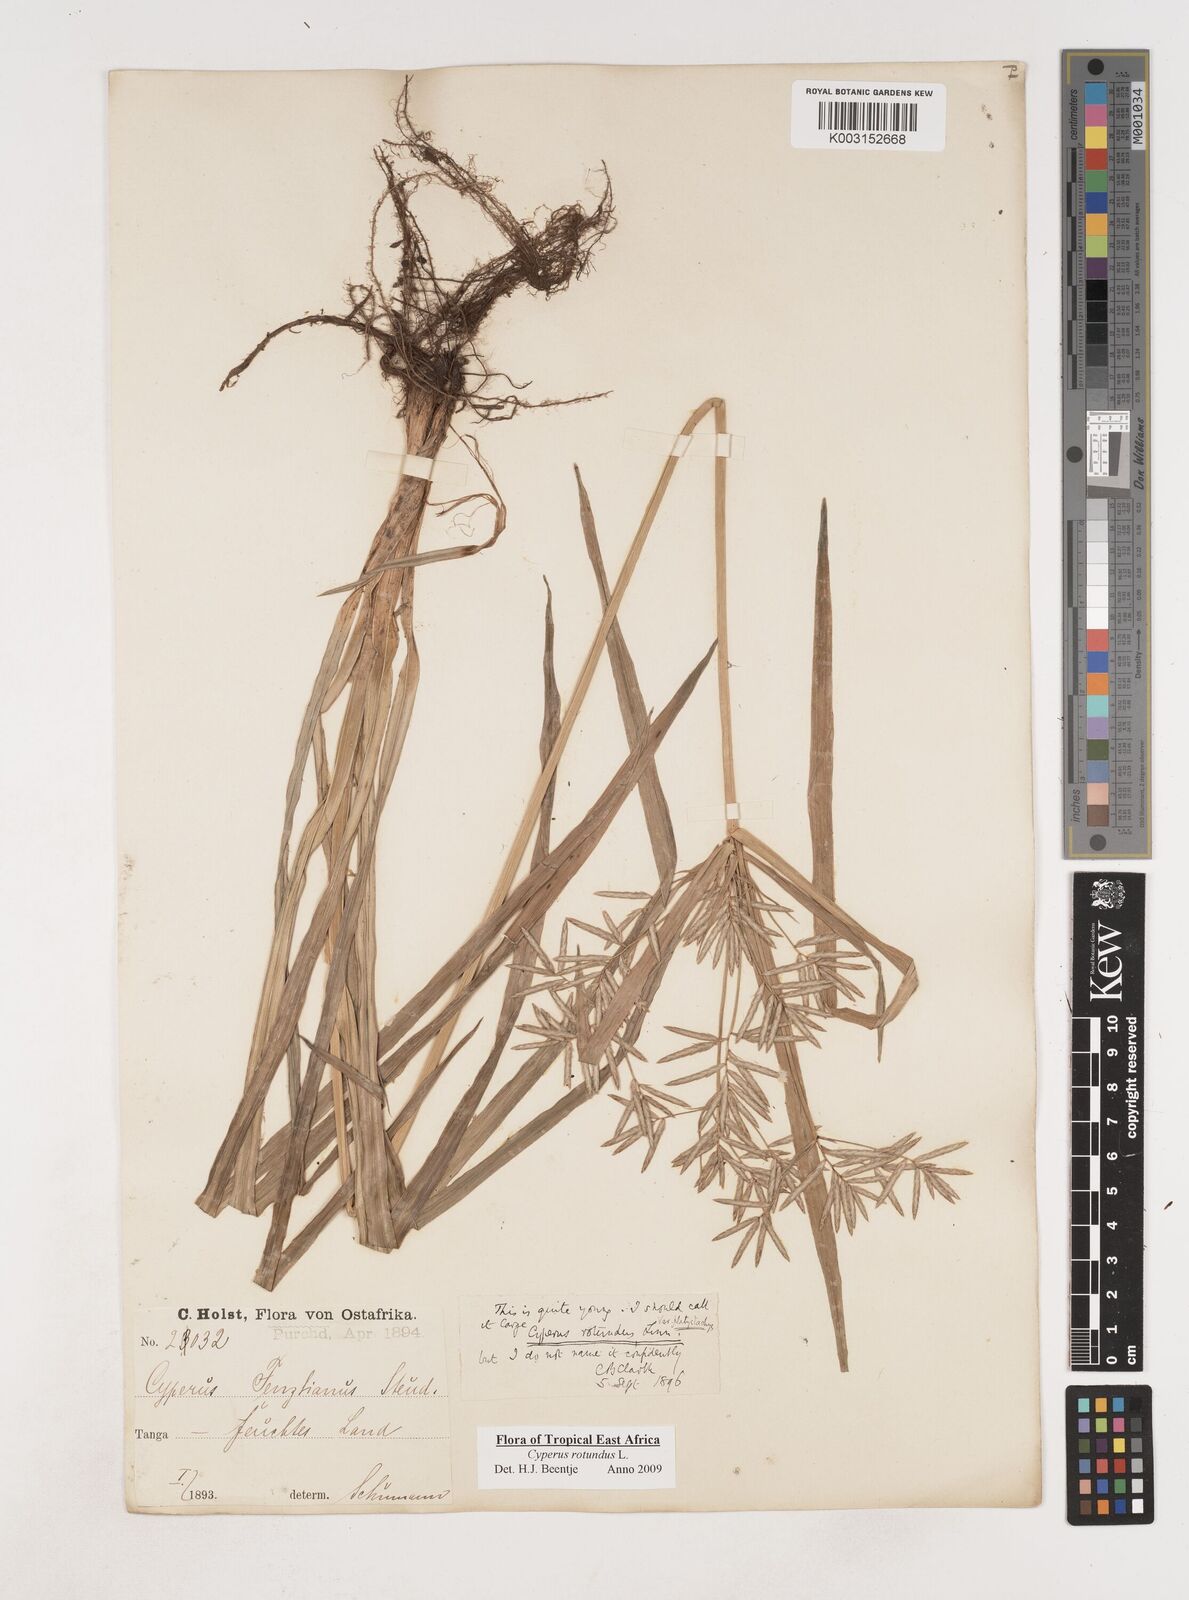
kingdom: Plantae
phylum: Tracheophyta
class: Liliopsida
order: Poales
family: Cyperaceae
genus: Cyperus
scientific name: Cyperus rotundus
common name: Nutgrass
